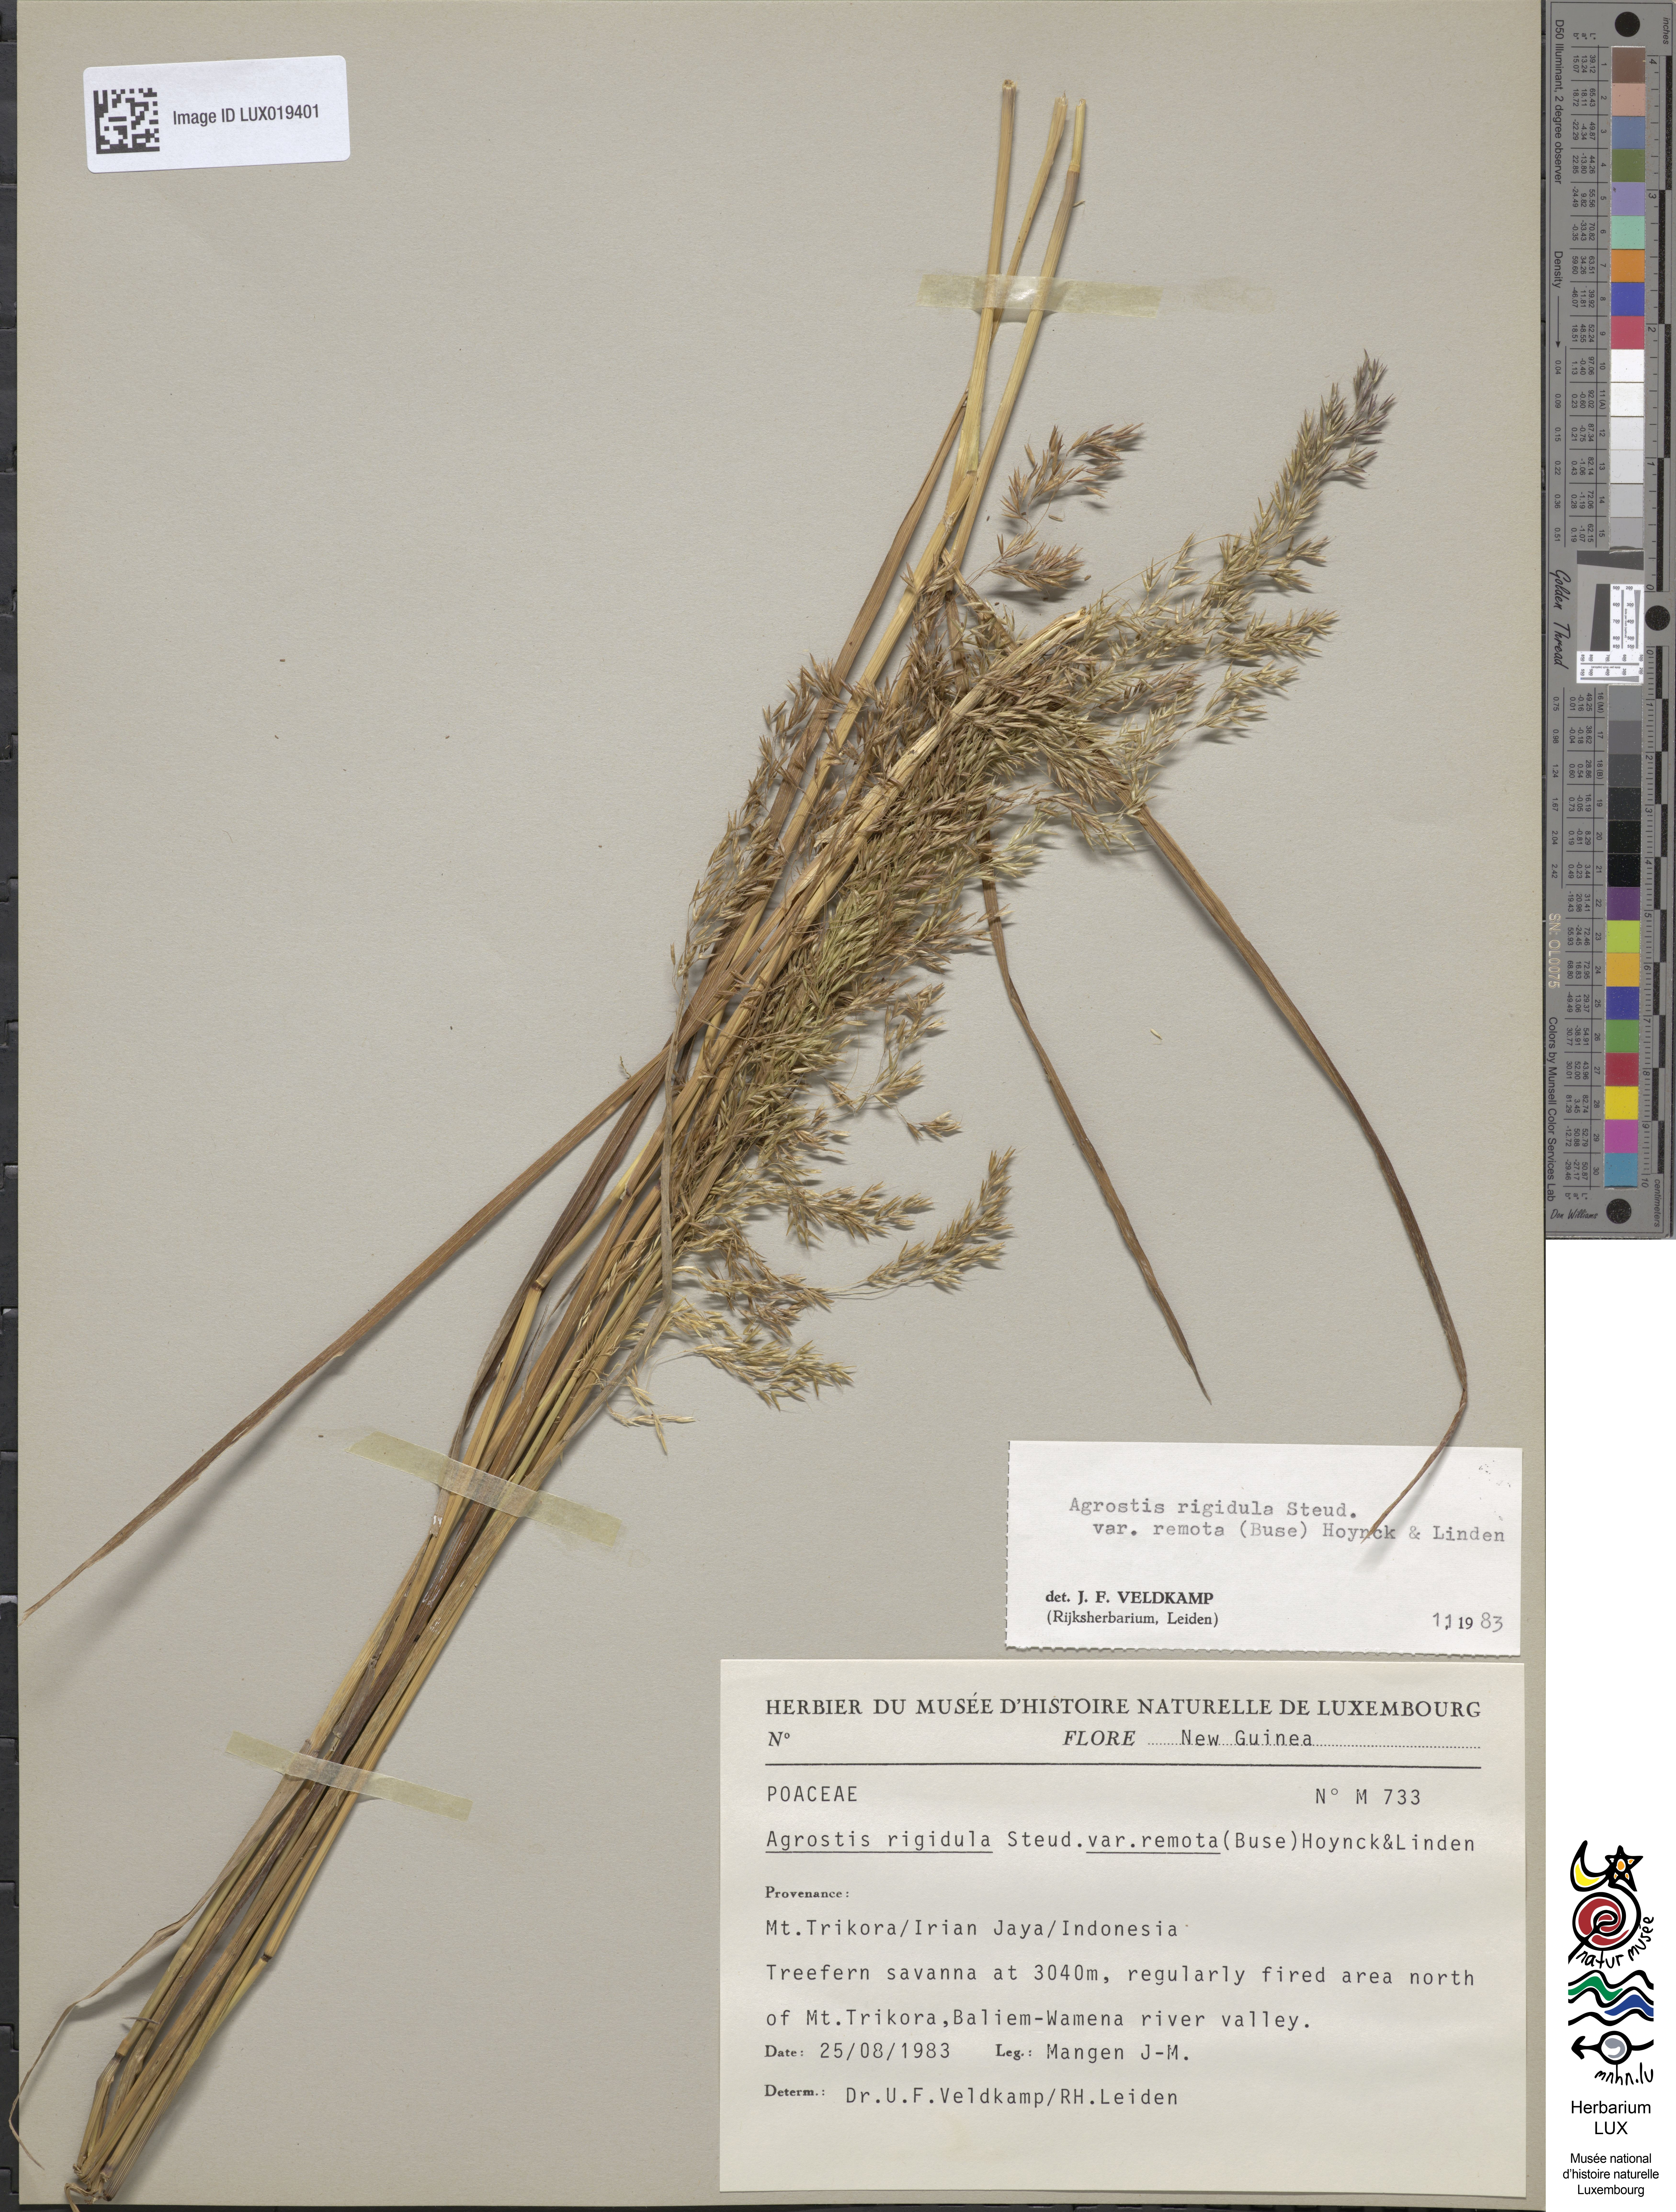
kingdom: Plantae
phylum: Tracheophyta
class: Liliopsida
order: Poales
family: Poaceae
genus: Agrostis
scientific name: Agrostis infirma
